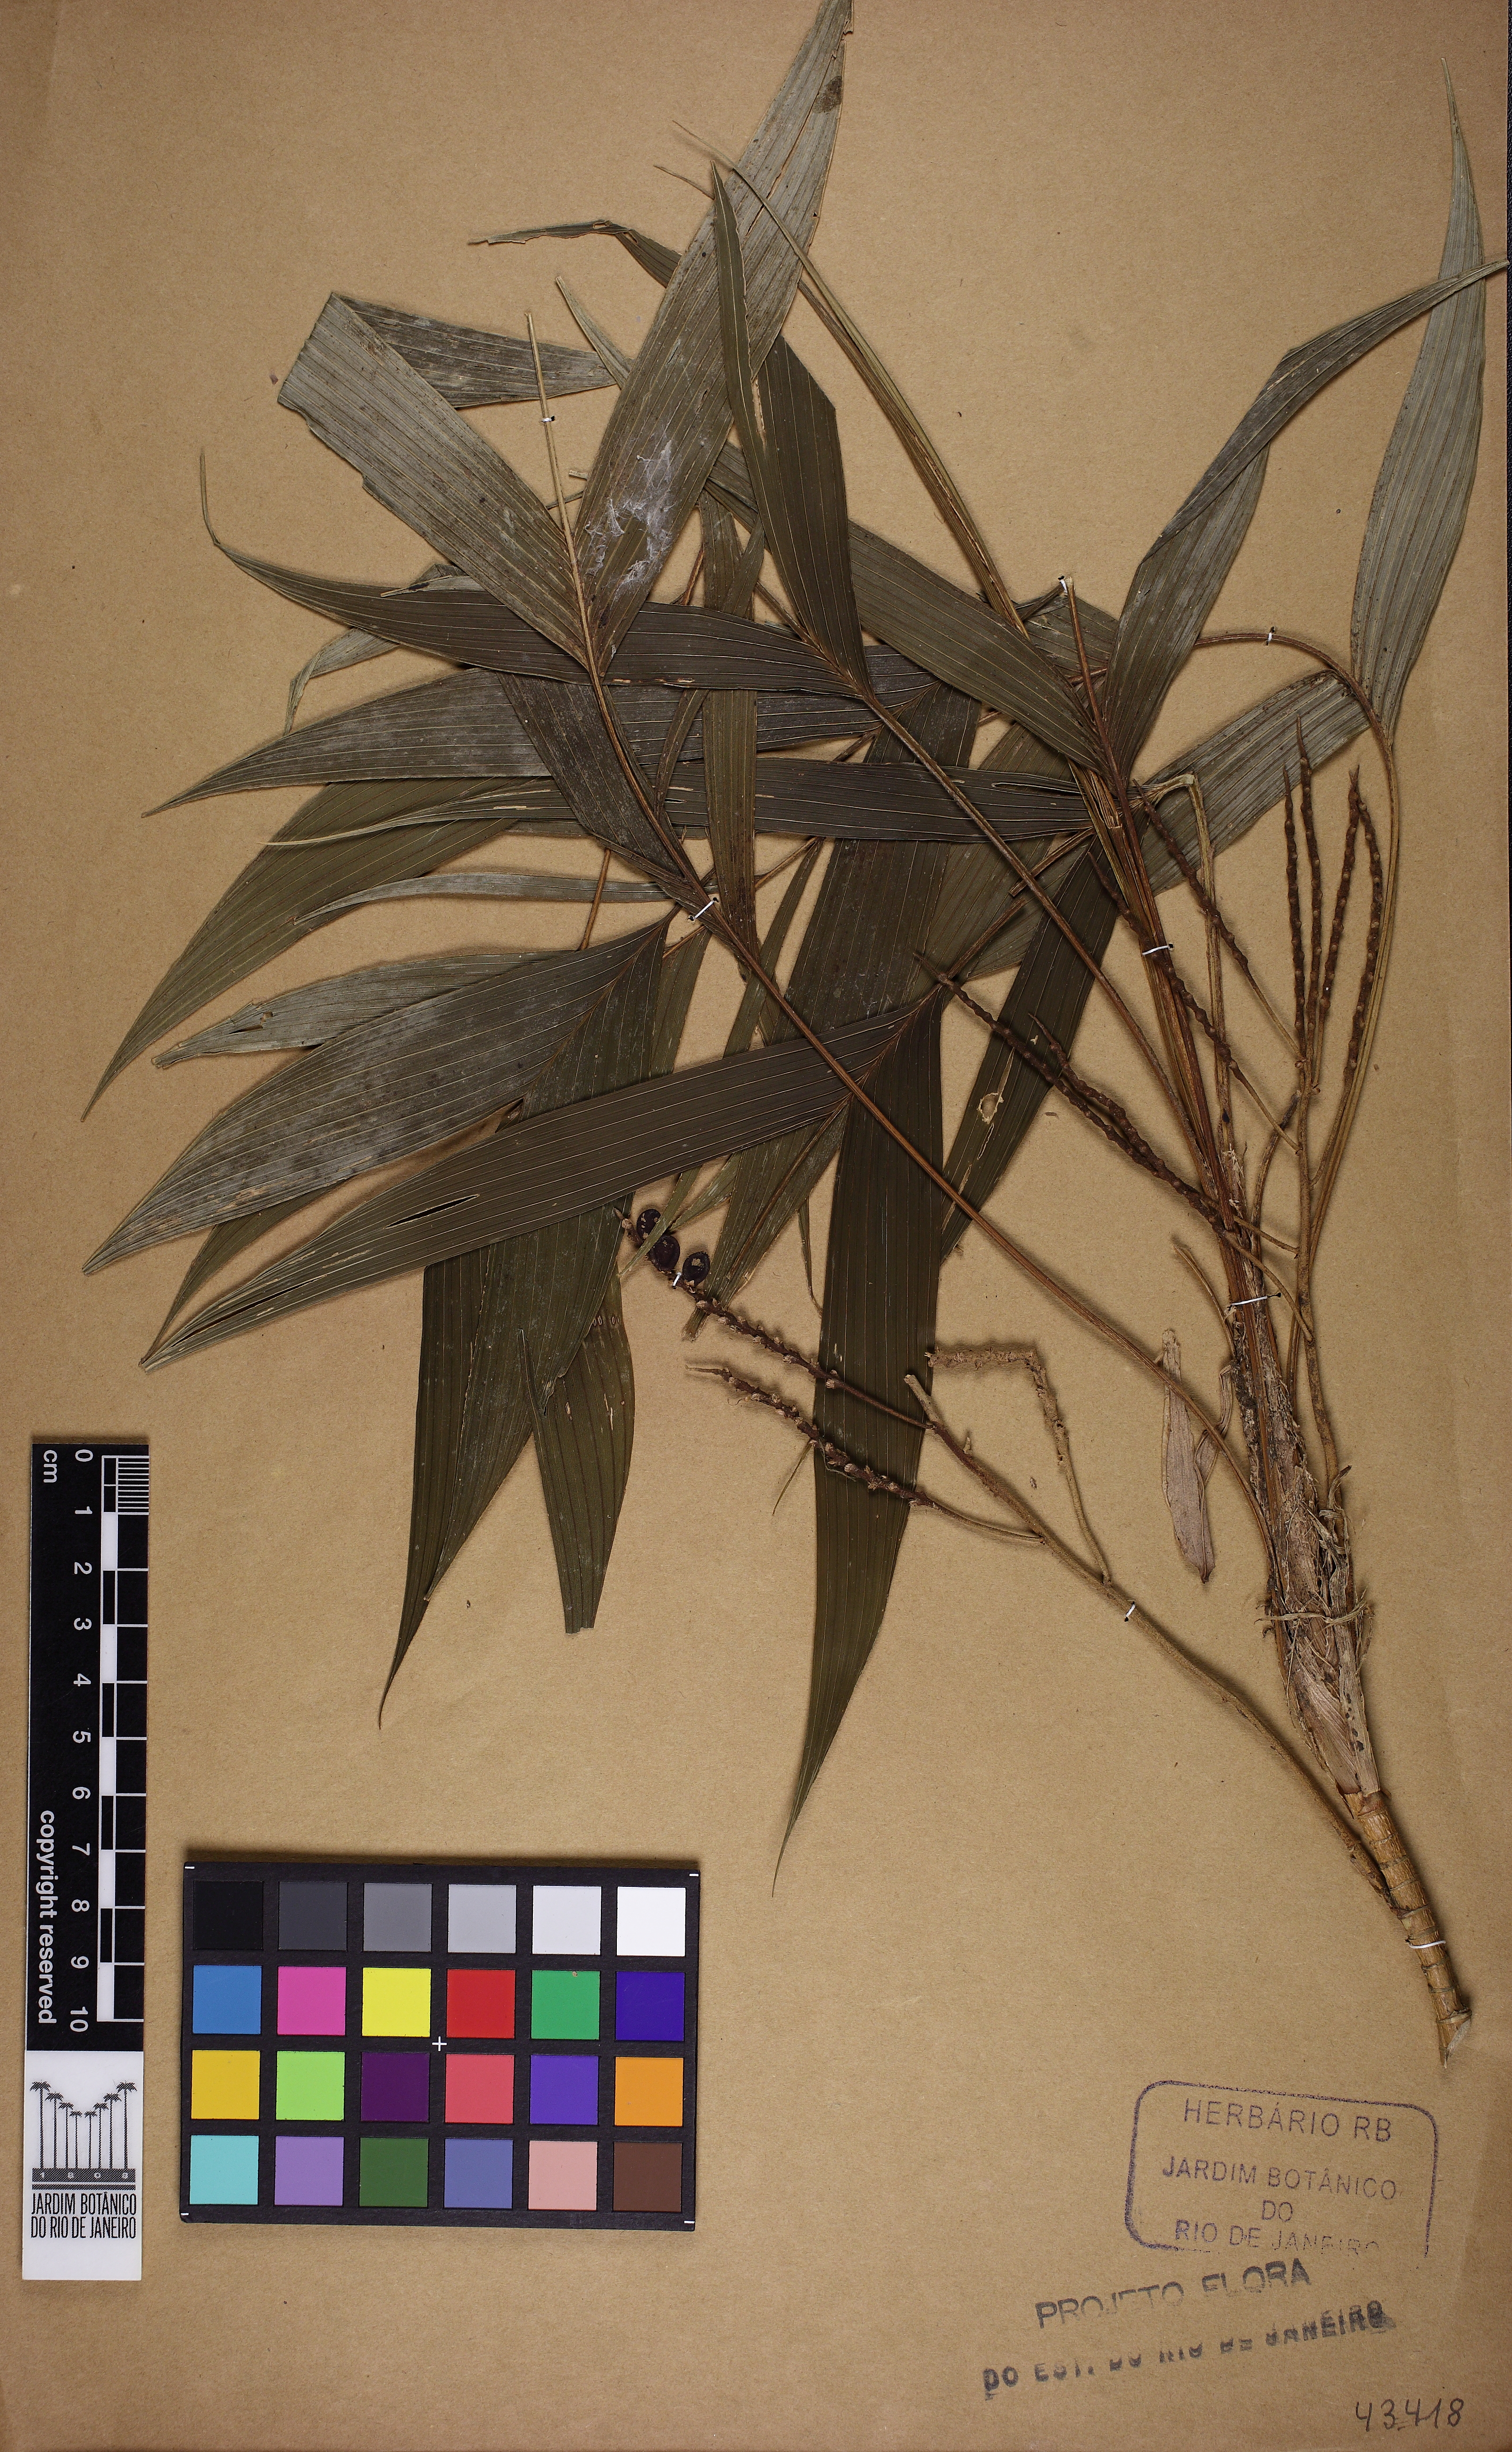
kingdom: Plantae
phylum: Tracheophyta
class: Liliopsida
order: Arecales
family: Arecaceae
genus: Geonoma
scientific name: Geonoma pohliana
